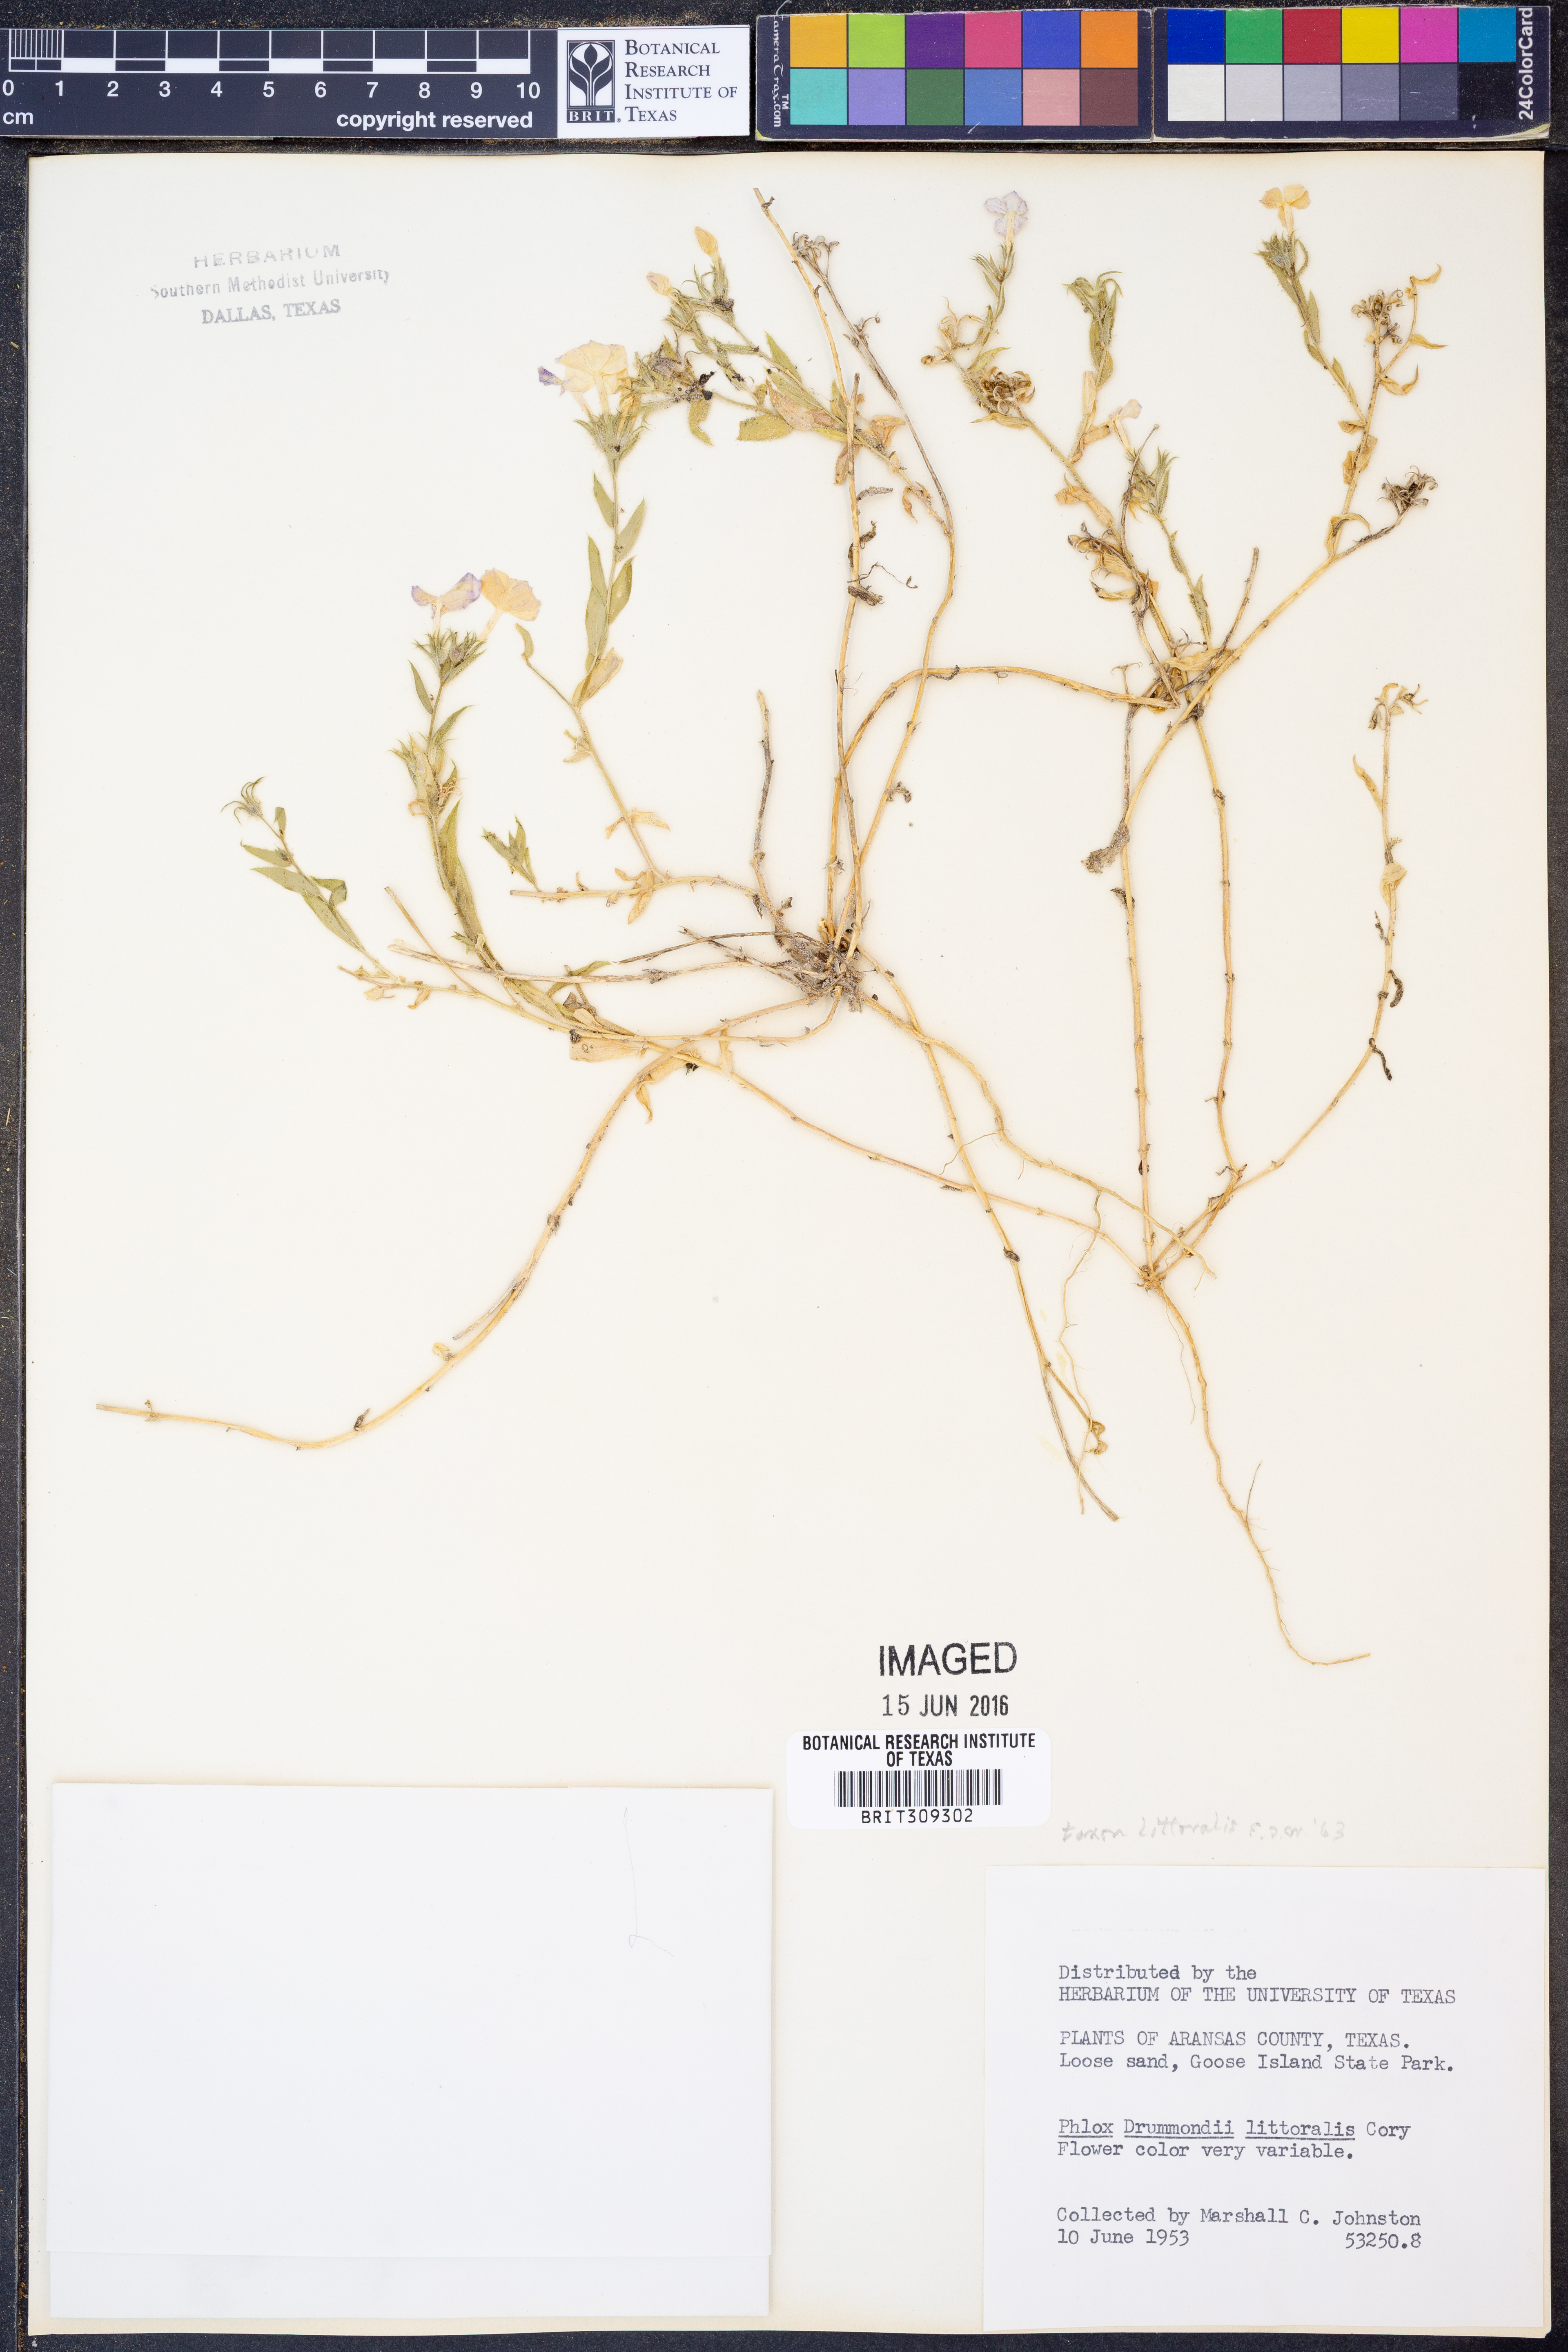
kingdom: Plantae
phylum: Tracheophyta
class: Magnoliopsida
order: Ericales
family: Polemoniaceae
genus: Phlox
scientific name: Phlox glabriflora
